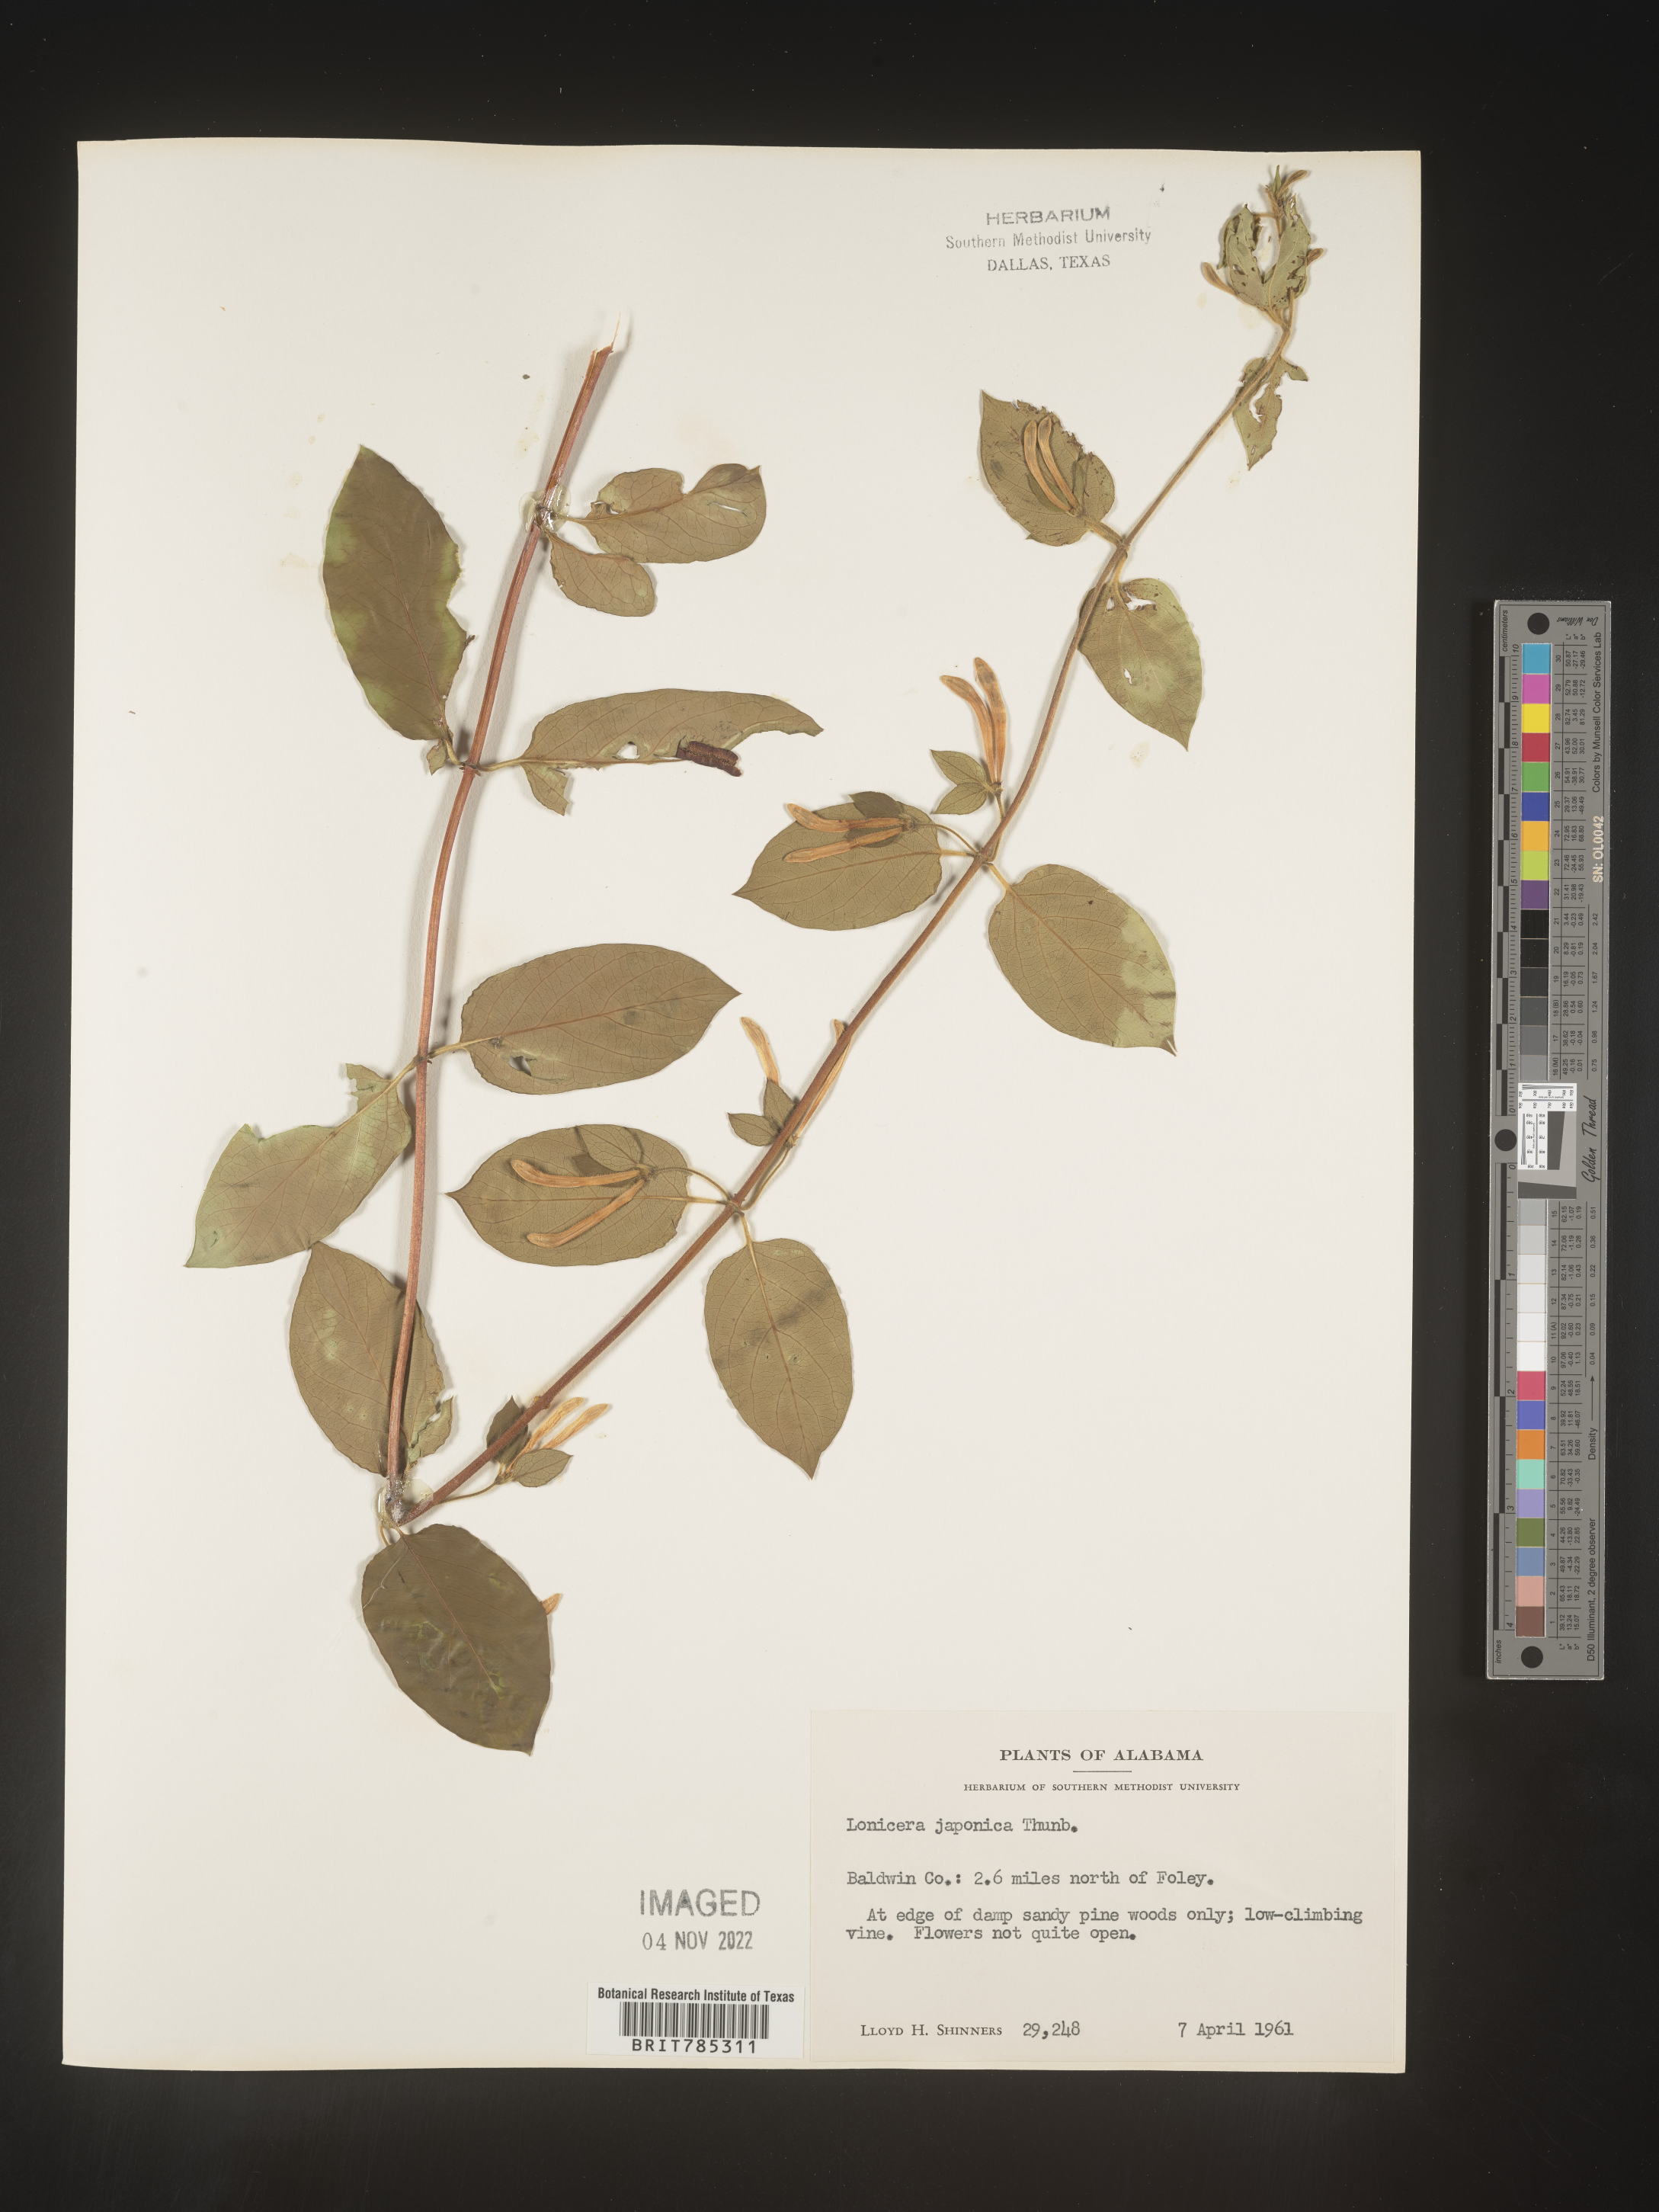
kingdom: Plantae
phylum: Tracheophyta
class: Magnoliopsida
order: Dipsacales
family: Caprifoliaceae
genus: Lonicera
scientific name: Lonicera japonica
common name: Japanese honeysuckle
